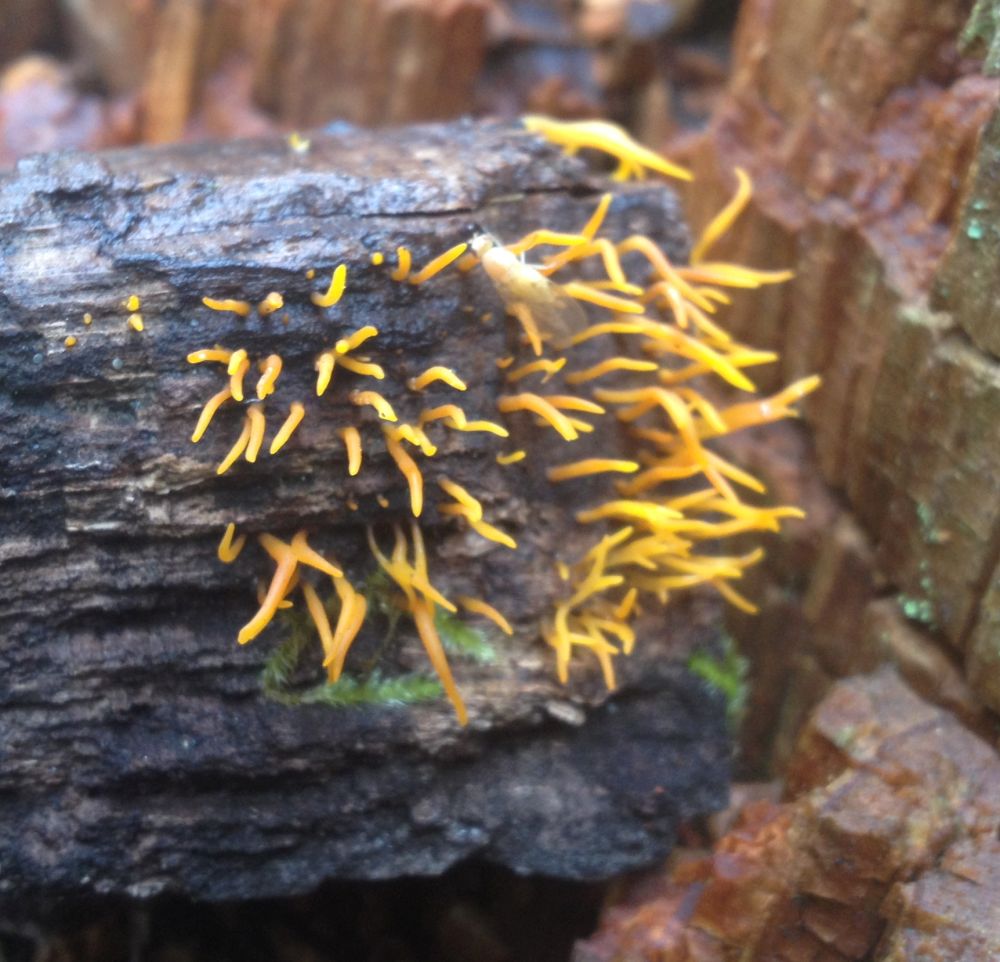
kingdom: Fungi
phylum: Basidiomycota
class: Dacrymycetes
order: Dacrymycetales
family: Dacrymycetaceae
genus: Calocera
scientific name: Calocera cornea
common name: liden guldgaffel
